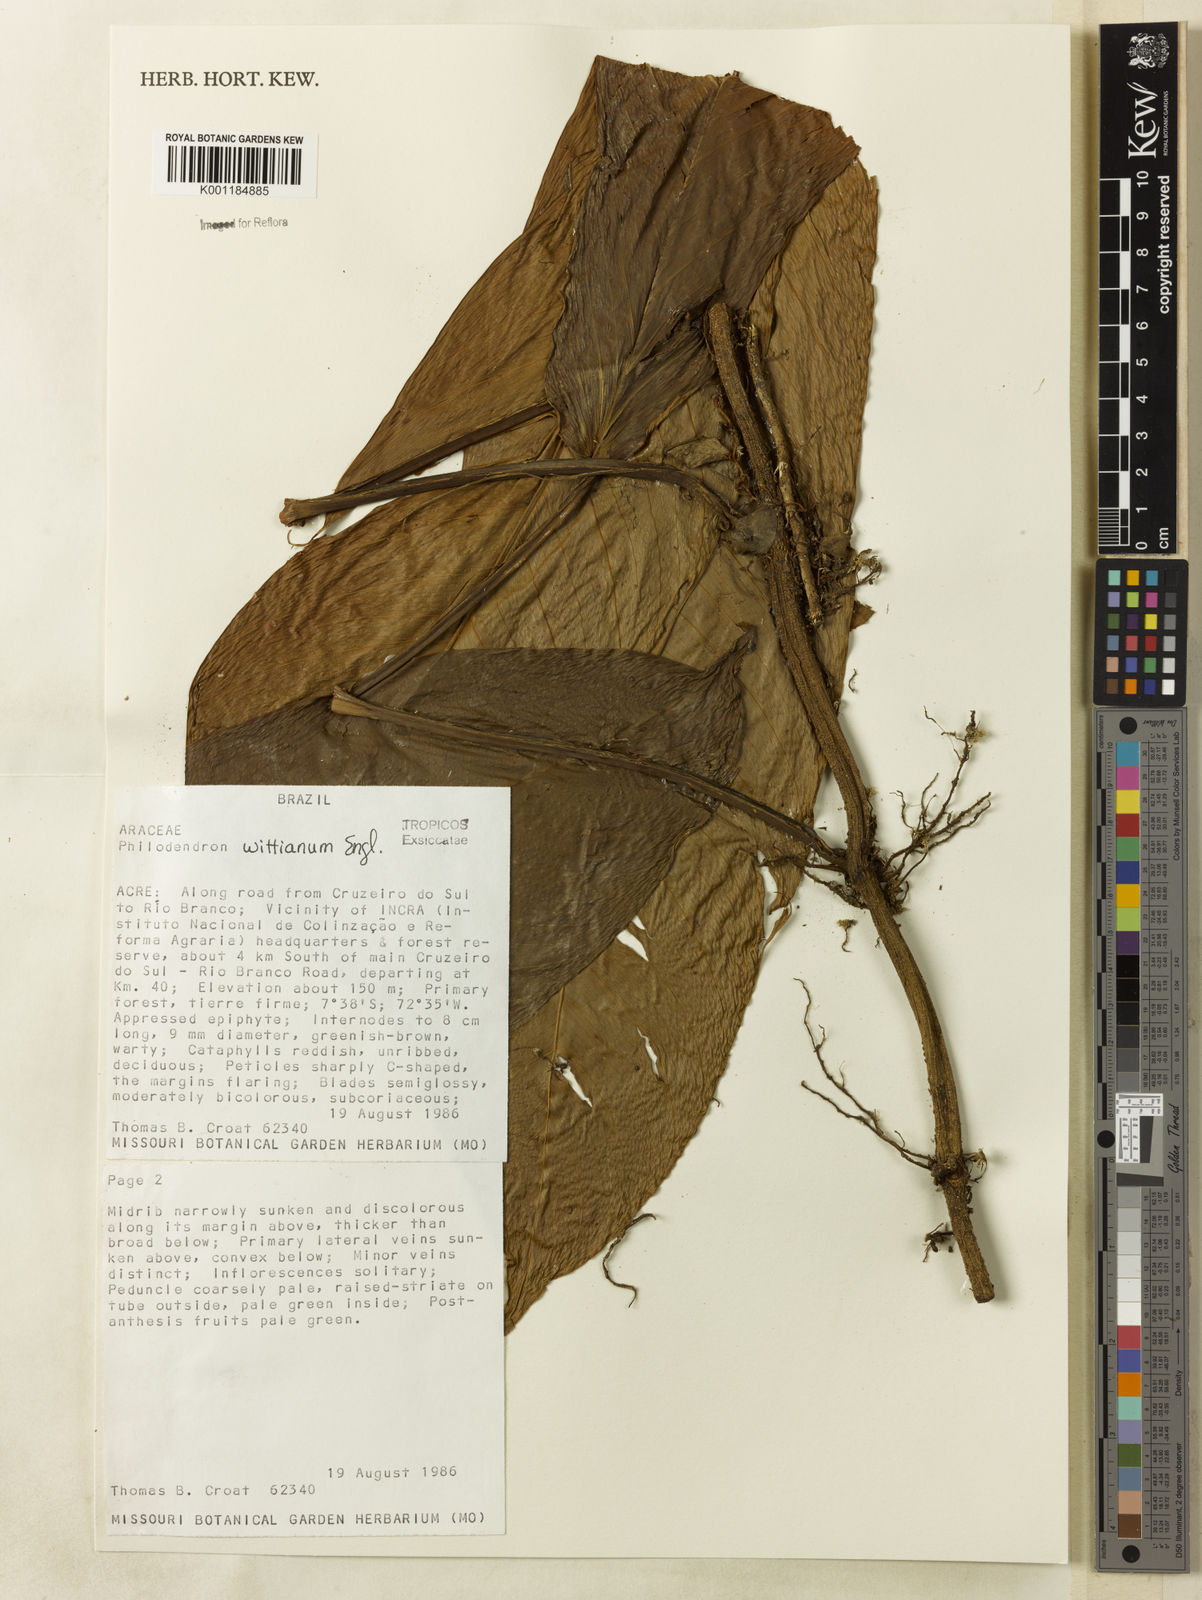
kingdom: Plantae
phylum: Tracheophyta
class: Liliopsida
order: Alismatales
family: Araceae
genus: Philodendron
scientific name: Philodendron wittianum
